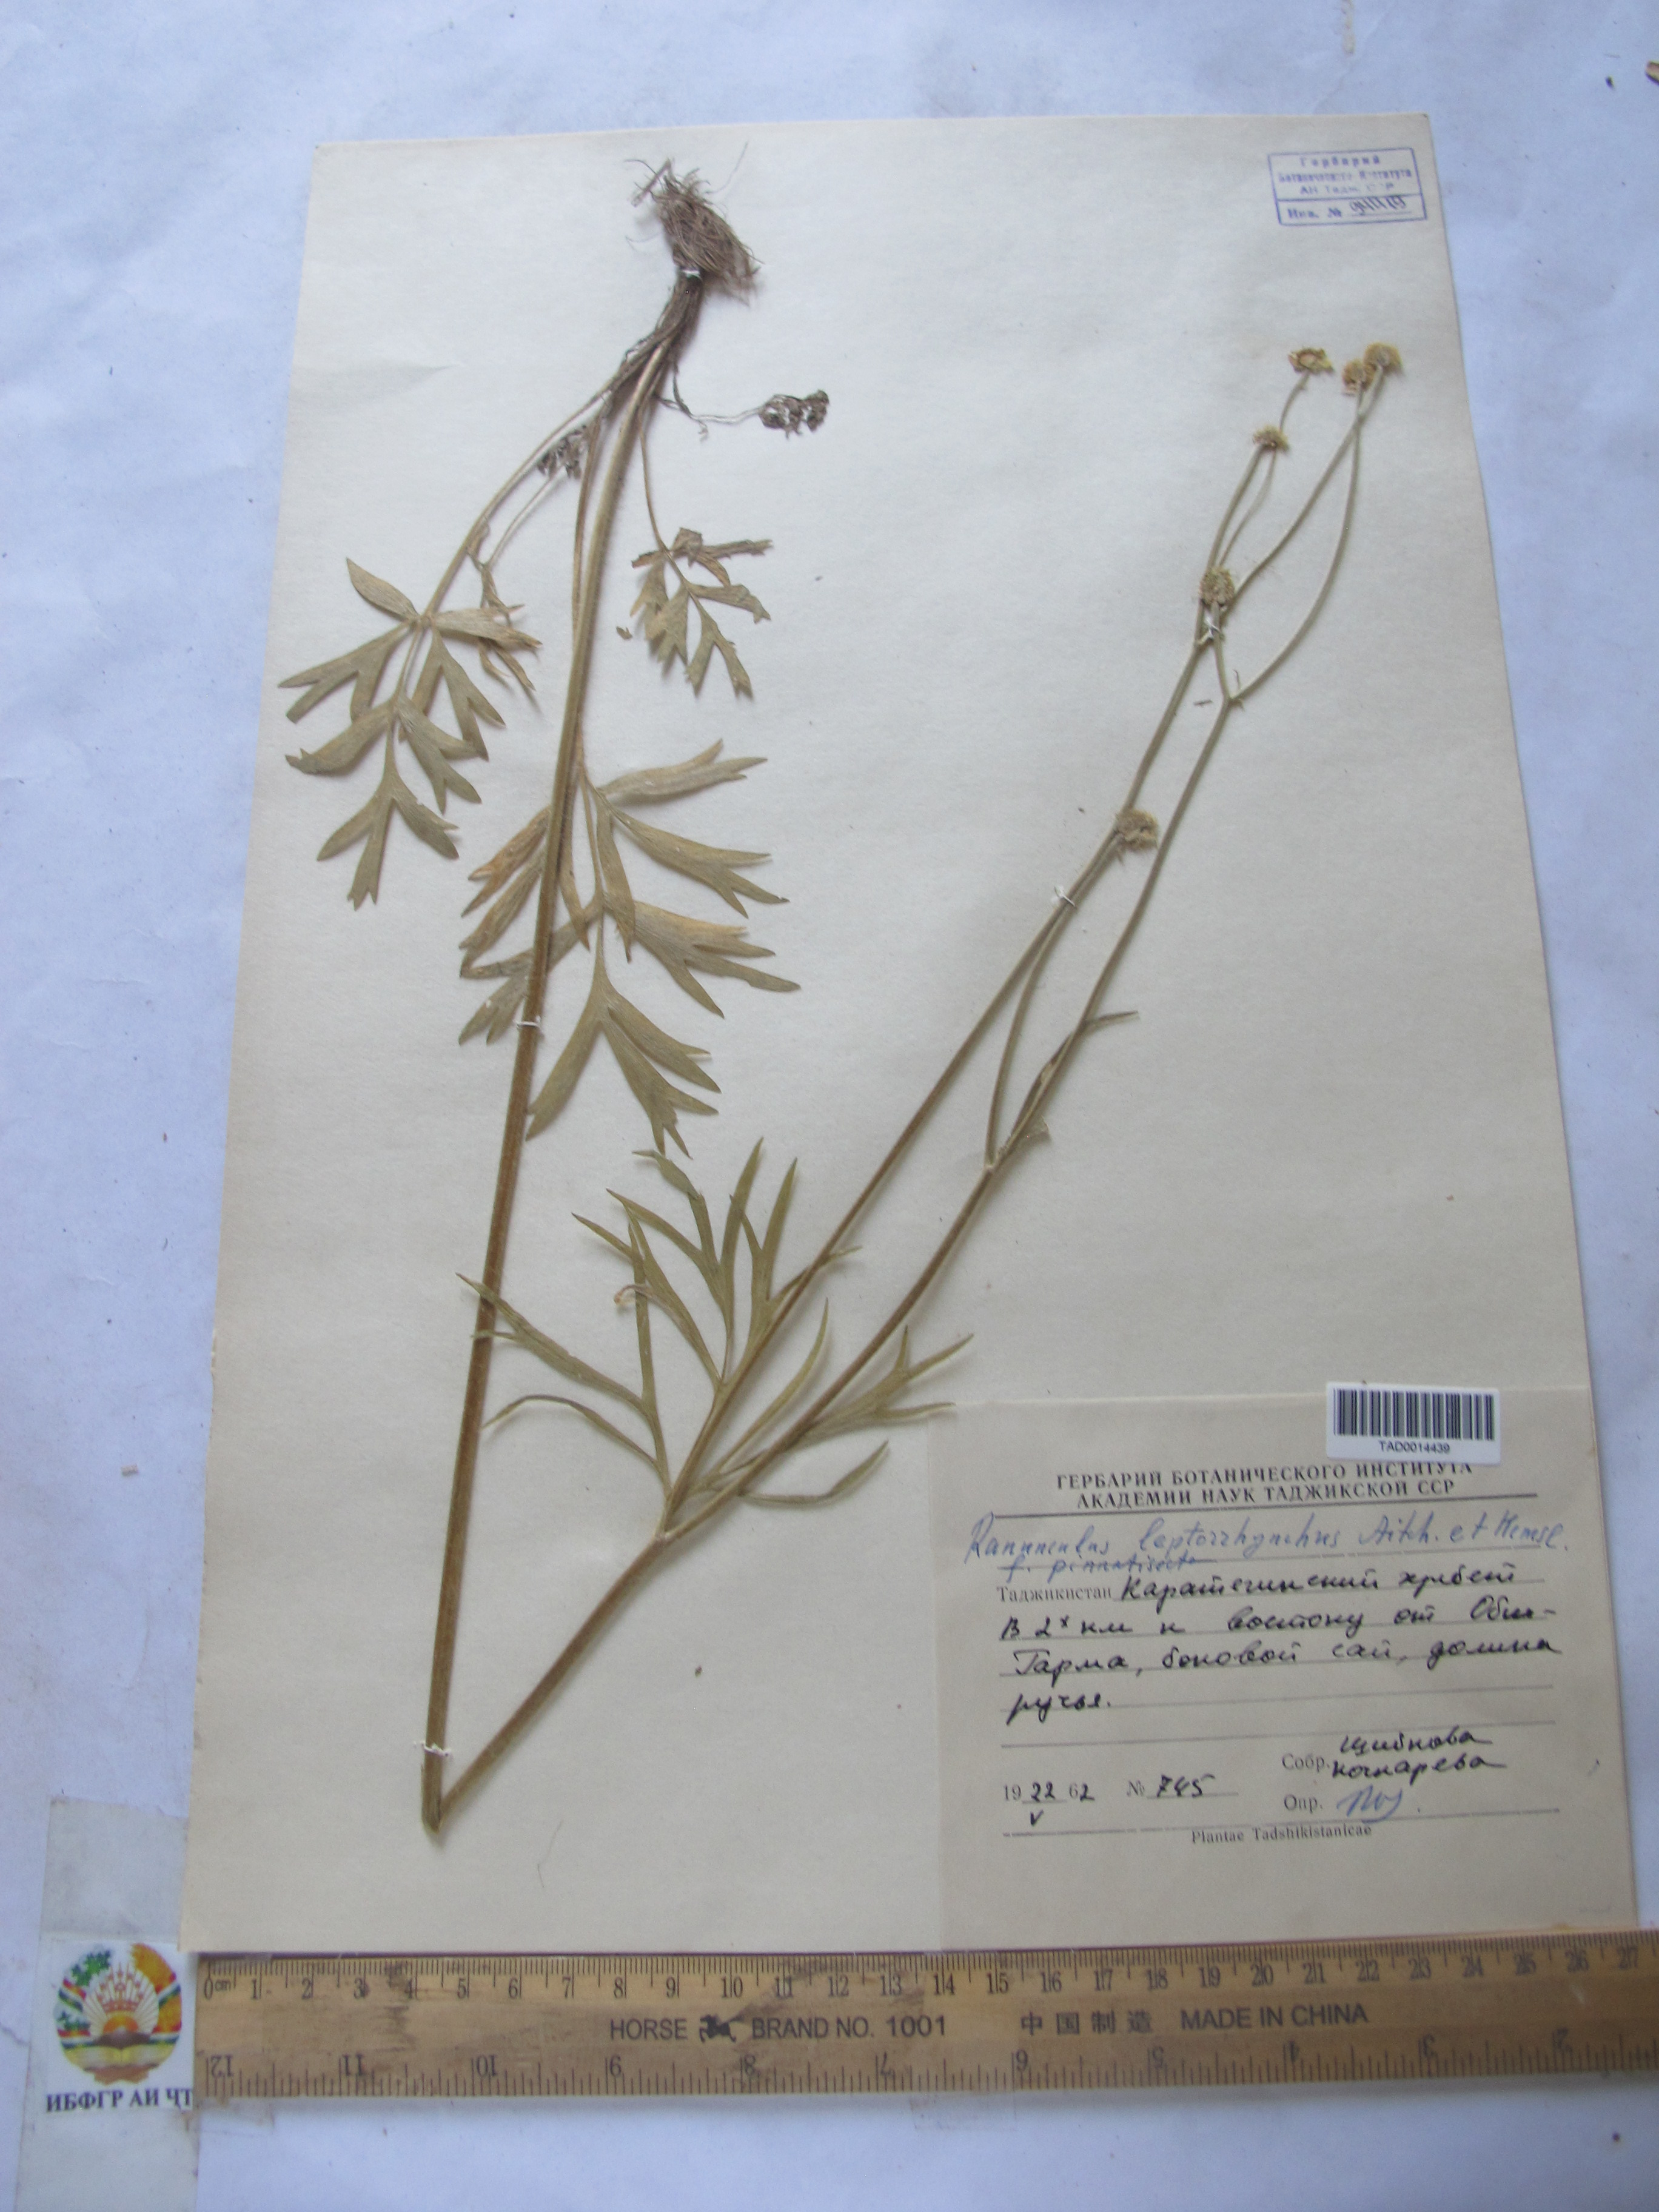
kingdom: Plantae
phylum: Tracheophyta
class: Magnoliopsida
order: Ranunculales
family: Ranunculaceae
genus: Ranunculus
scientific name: Ranunculus leptorrhynchus
